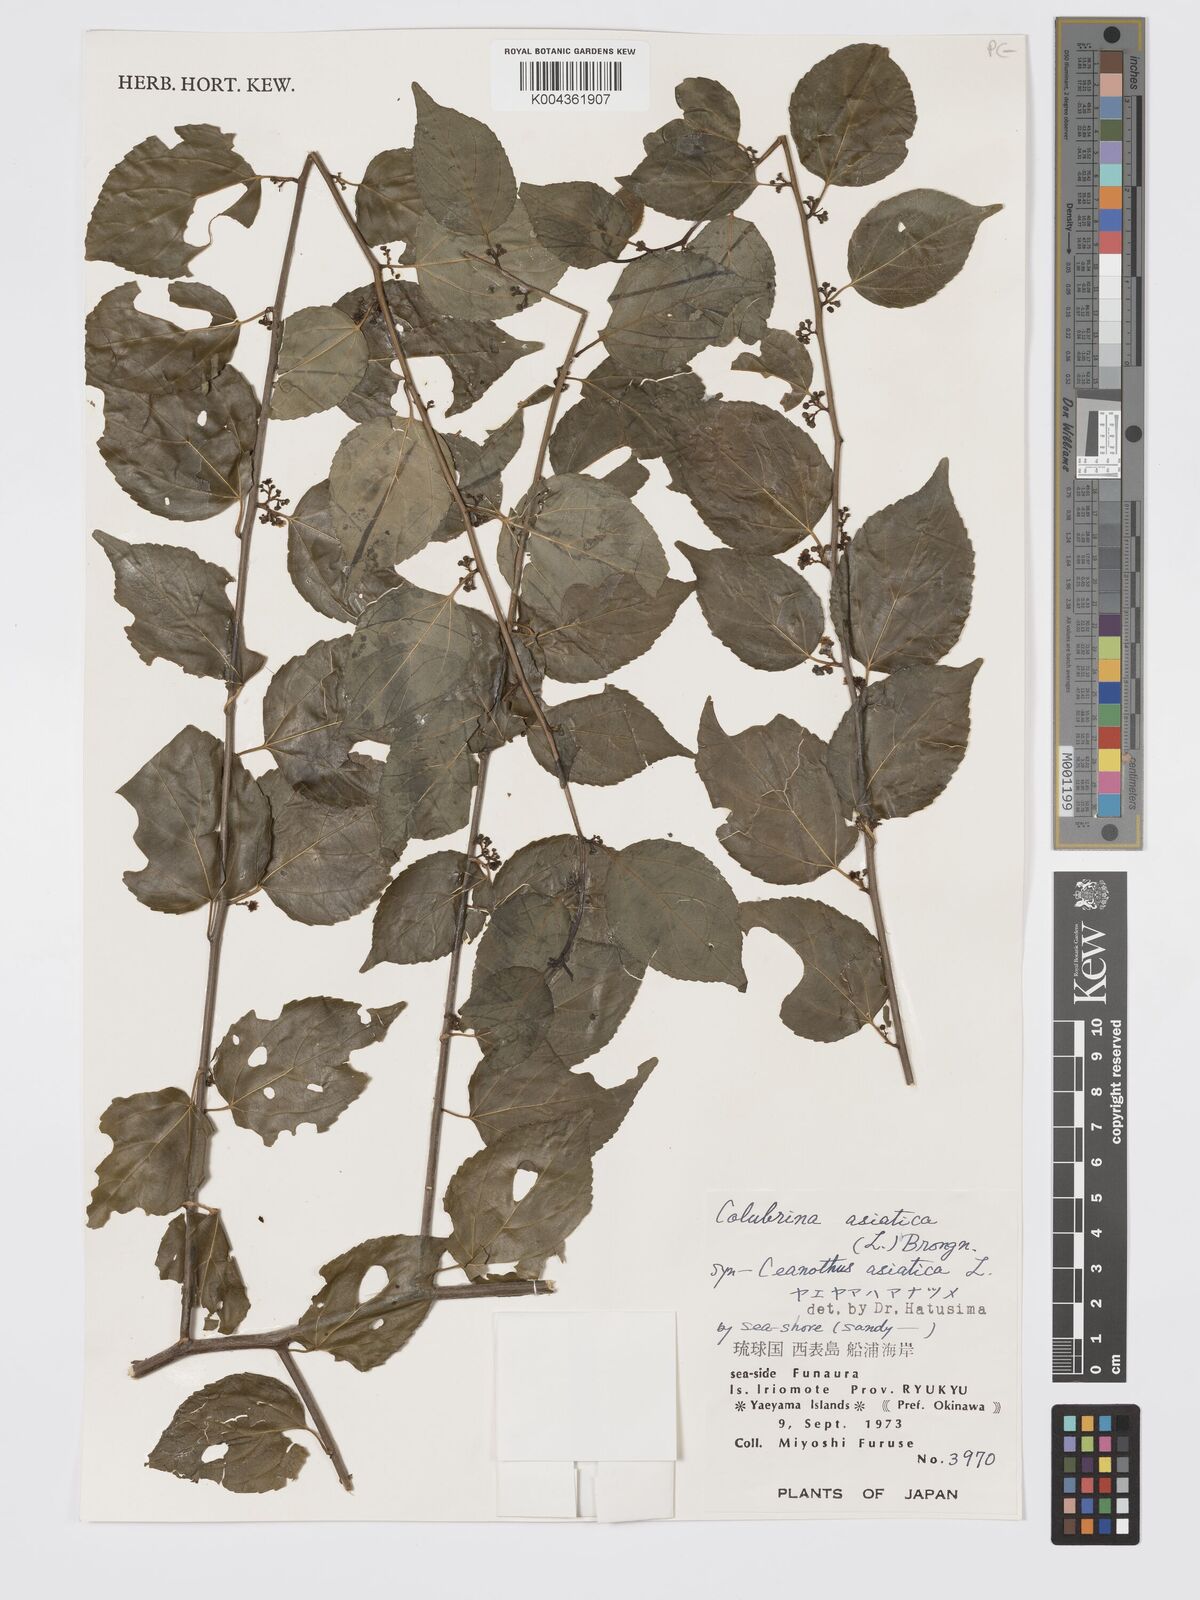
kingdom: Plantae
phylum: Tracheophyta
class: Magnoliopsida
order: Rosales
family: Rhamnaceae
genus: Colubrina
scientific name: Colubrina asiatica
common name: Asian nakedwood
